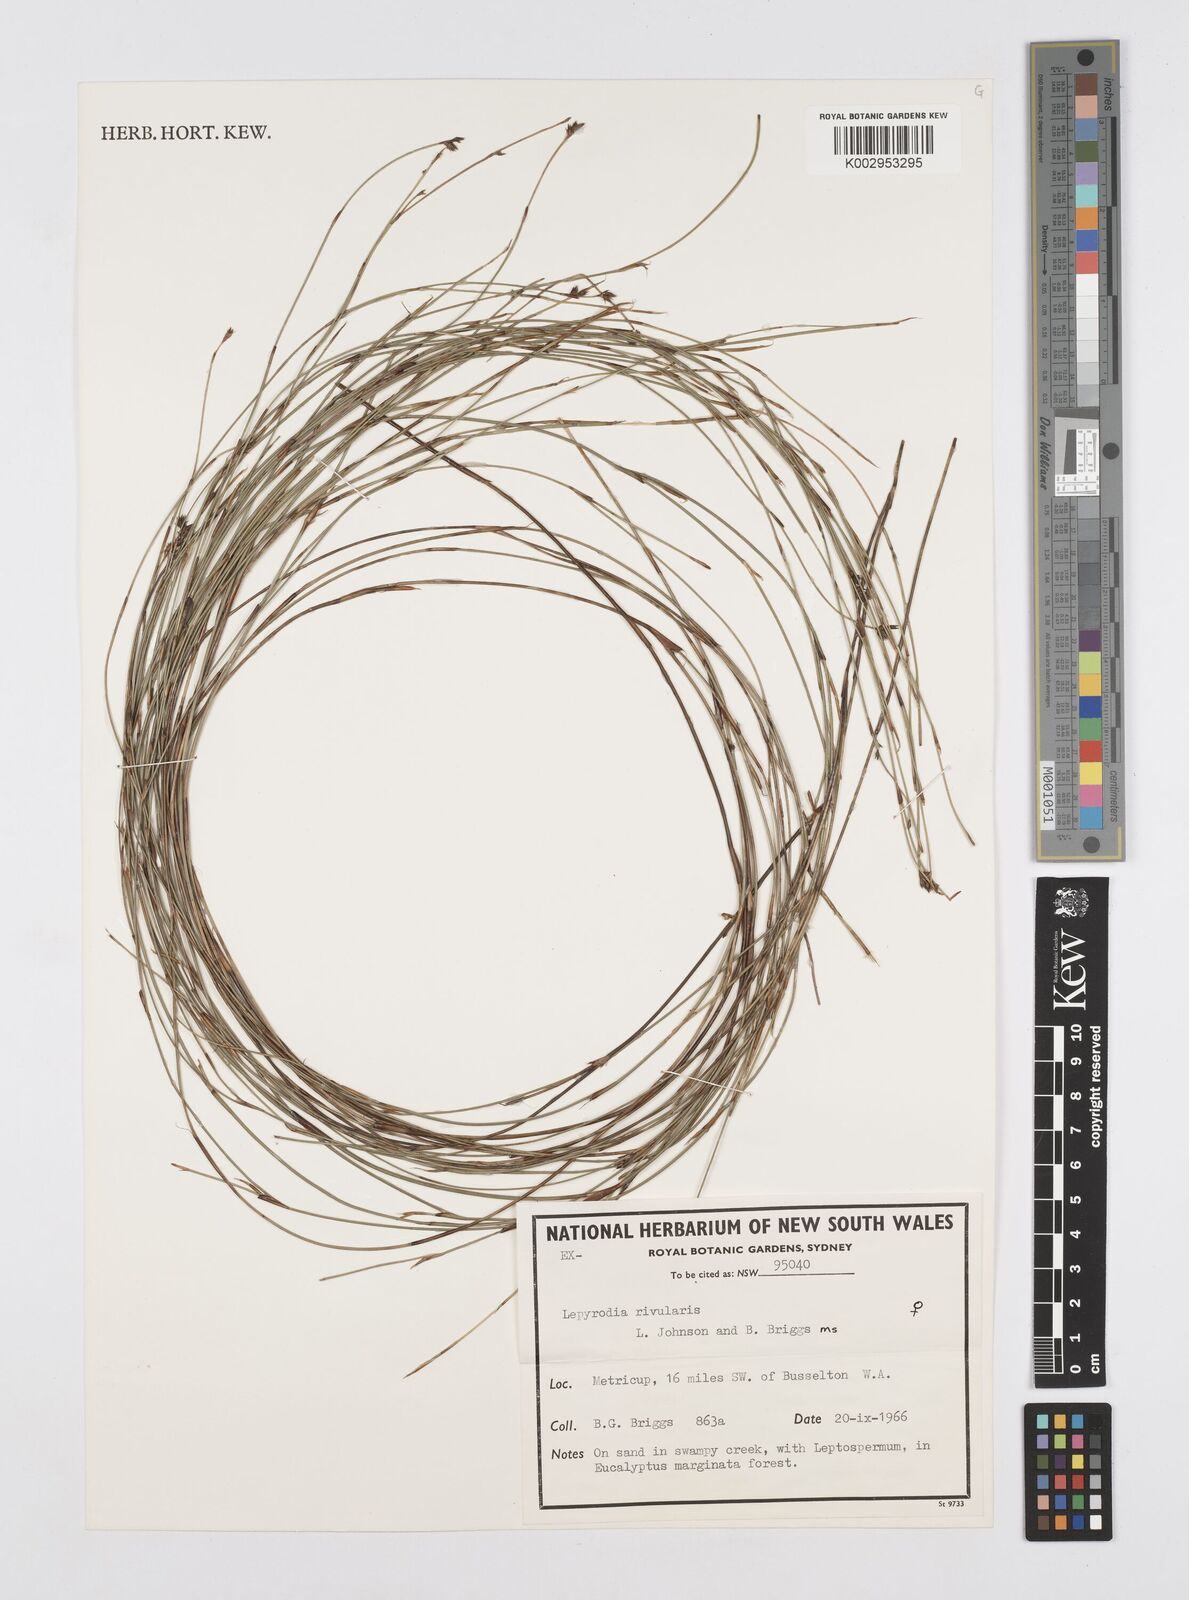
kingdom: Plantae
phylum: Tracheophyta
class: Liliopsida
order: Poales
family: Restionaceae
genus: Sporadanthus
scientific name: Sporadanthus rivularis
